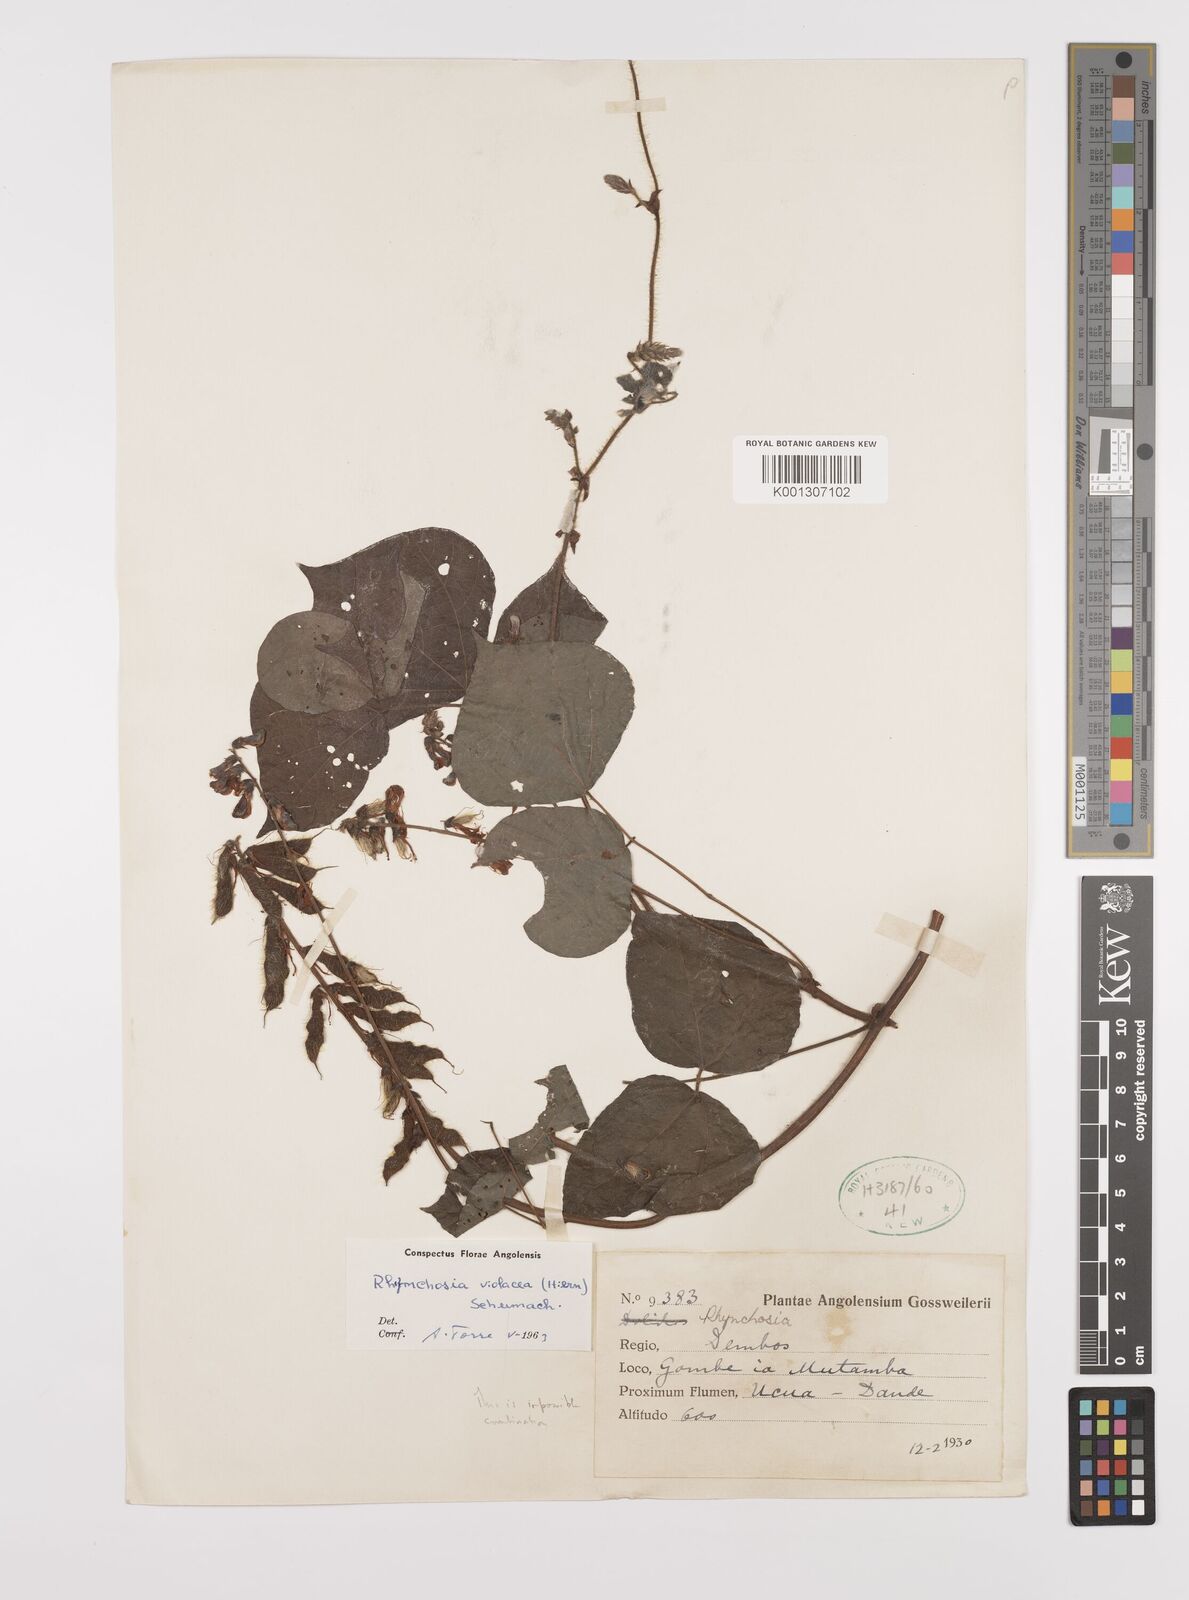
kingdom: Plantae
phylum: Tracheophyta
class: Magnoliopsida
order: Fabales
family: Fabaceae
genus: Rhynchosia
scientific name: Rhynchosia viscosa
